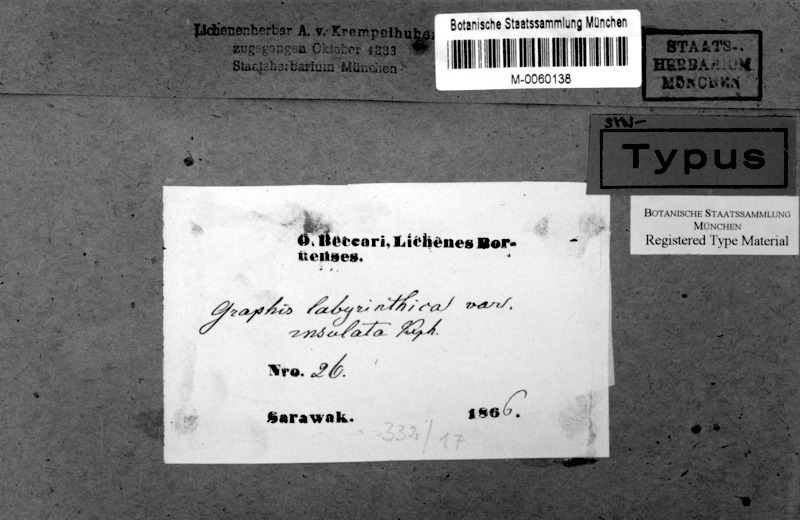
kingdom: Fungi
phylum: Ascomycota
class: Lecanoromycetes
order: Ostropales
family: Graphidaceae
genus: Sarcographa
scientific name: Sarcographa labyrinthica
